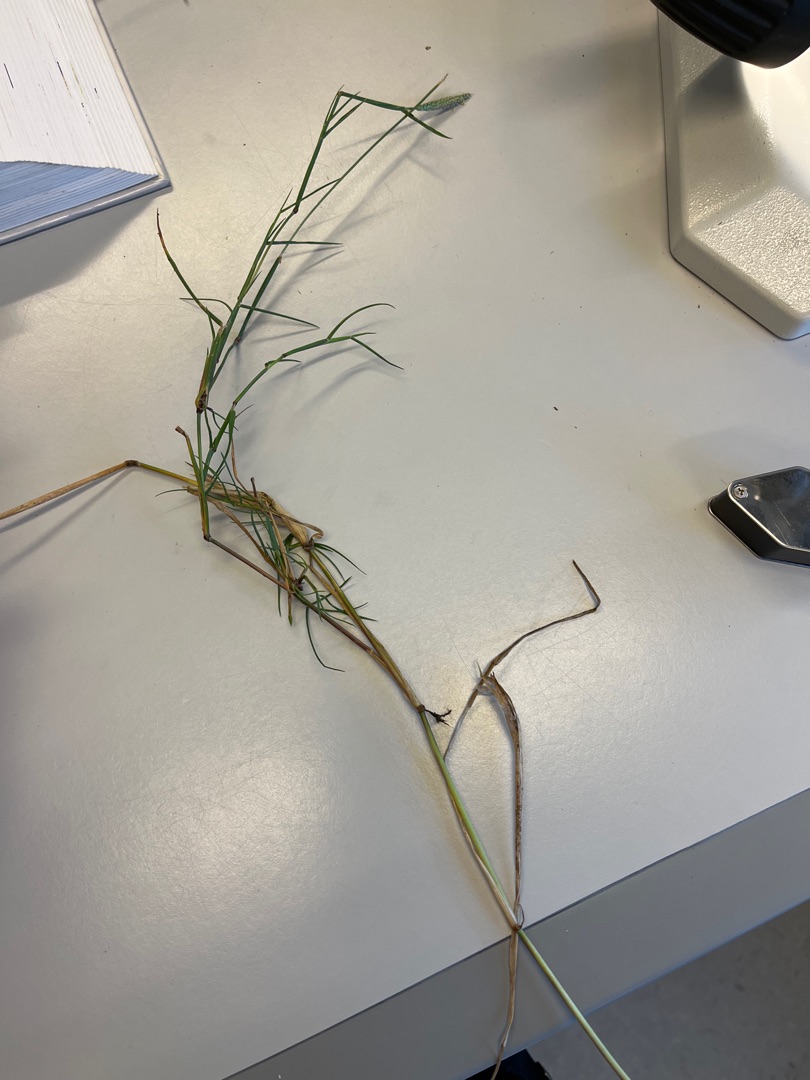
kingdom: Plantae
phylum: Tracheophyta
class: Liliopsida
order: Poales
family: Poaceae
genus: Alopecurus
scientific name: Alopecurus geniculatus
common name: Knæbøjet rævehale
